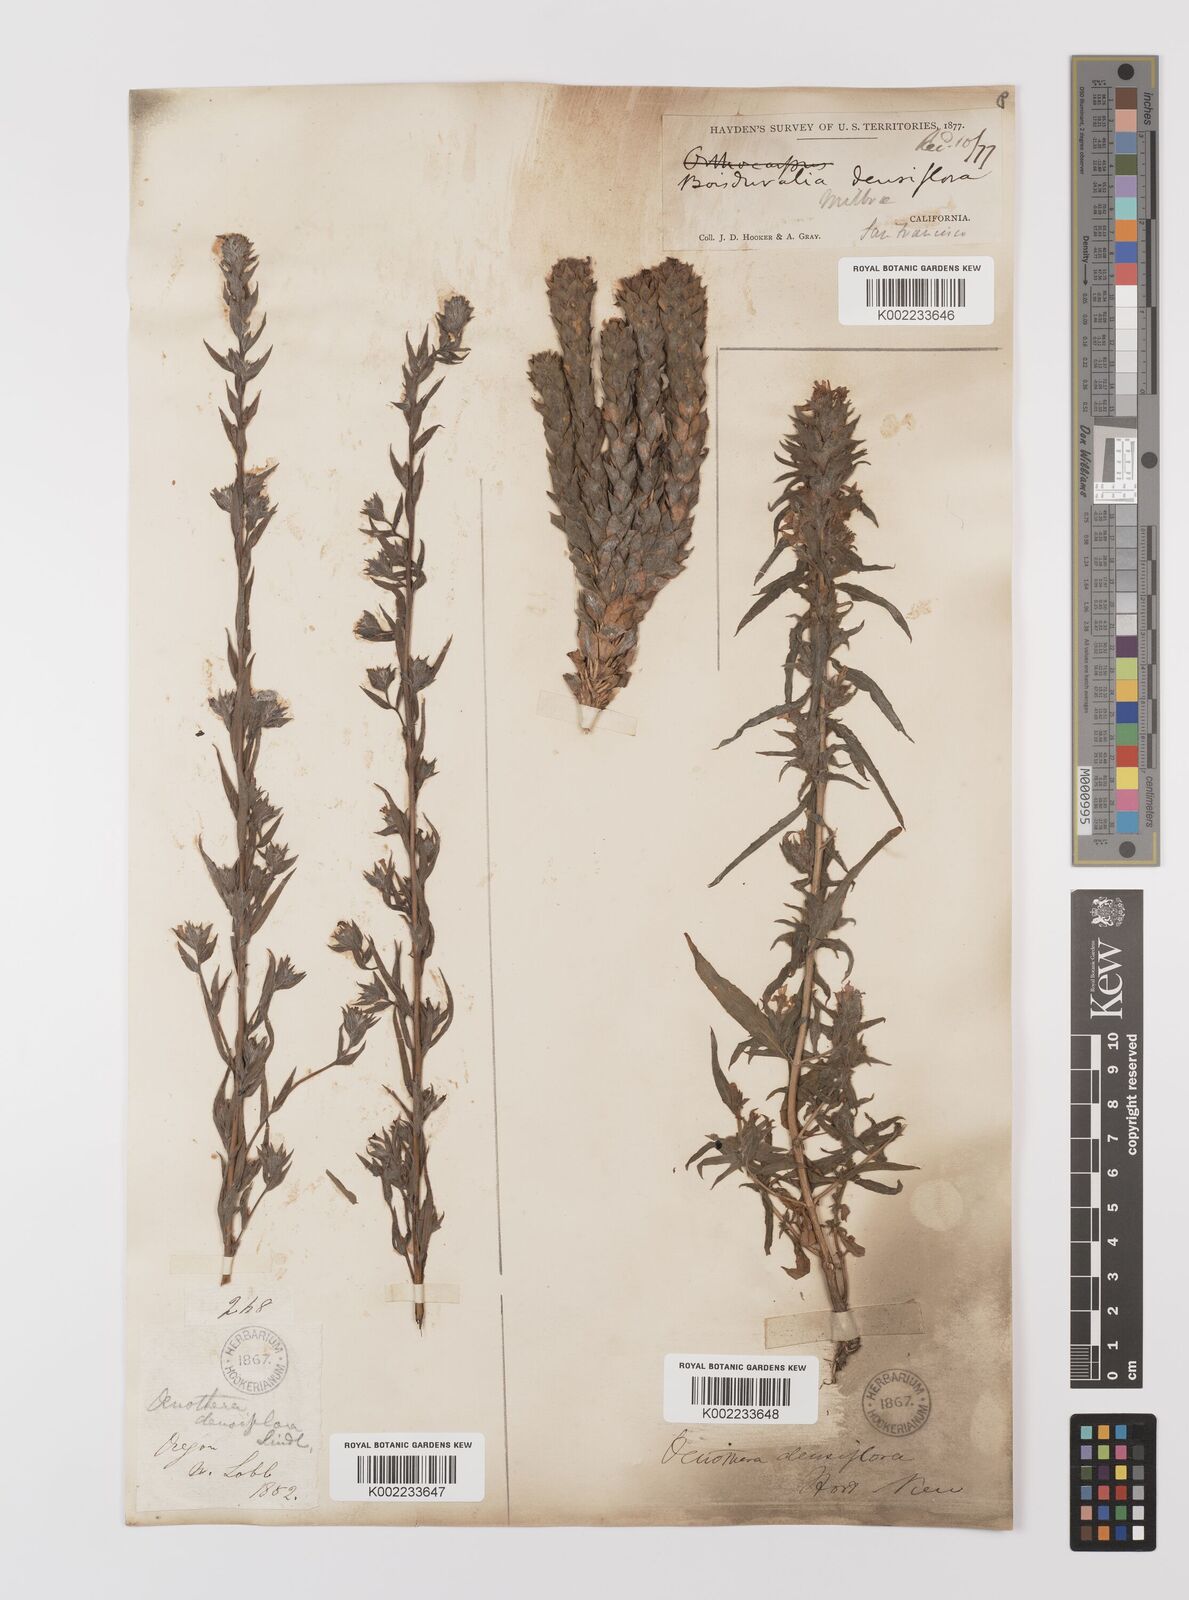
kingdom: Plantae
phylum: Tracheophyta
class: Magnoliopsida
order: Myrtales
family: Onagraceae
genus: Epilobium
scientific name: Epilobium densiflorum
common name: Dense spike-primrose
